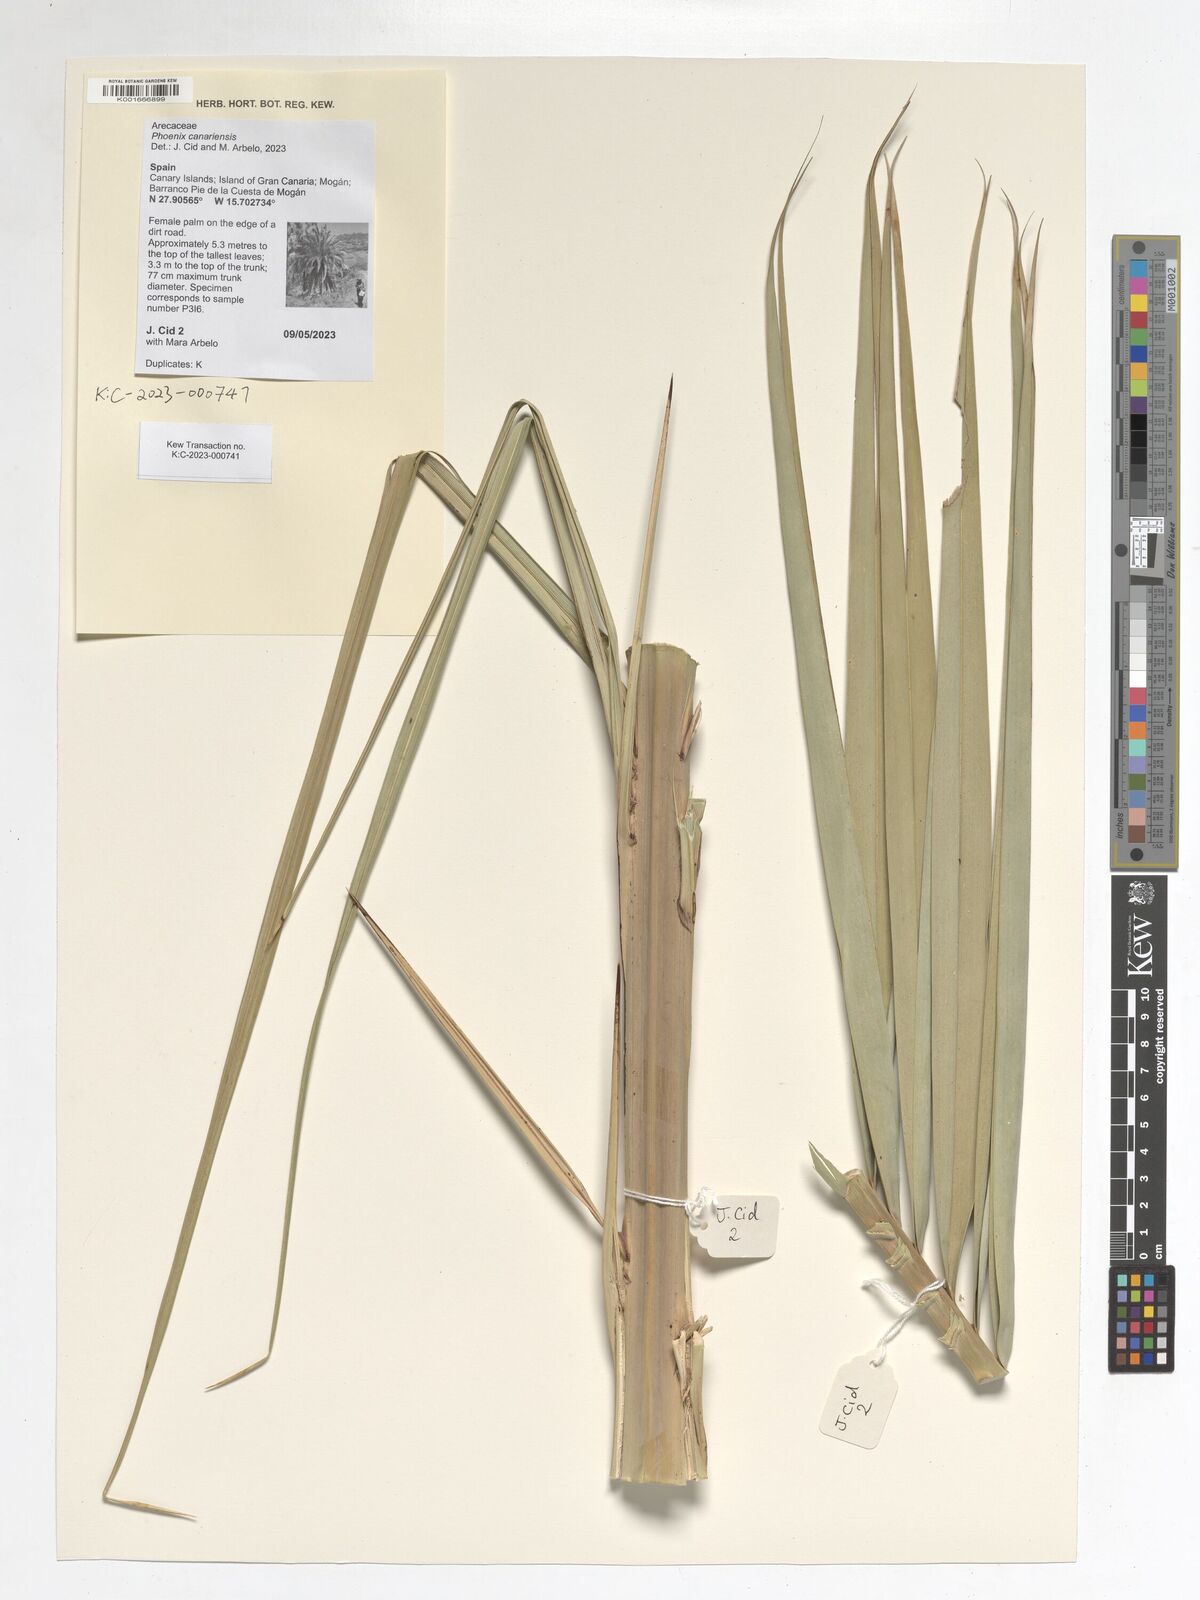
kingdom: Plantae
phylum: Tracheophyta
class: Liliopsida
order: Arecales
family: Arecaceae
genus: Phoenix
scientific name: Phoenix canariensis
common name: Canary island date palm
